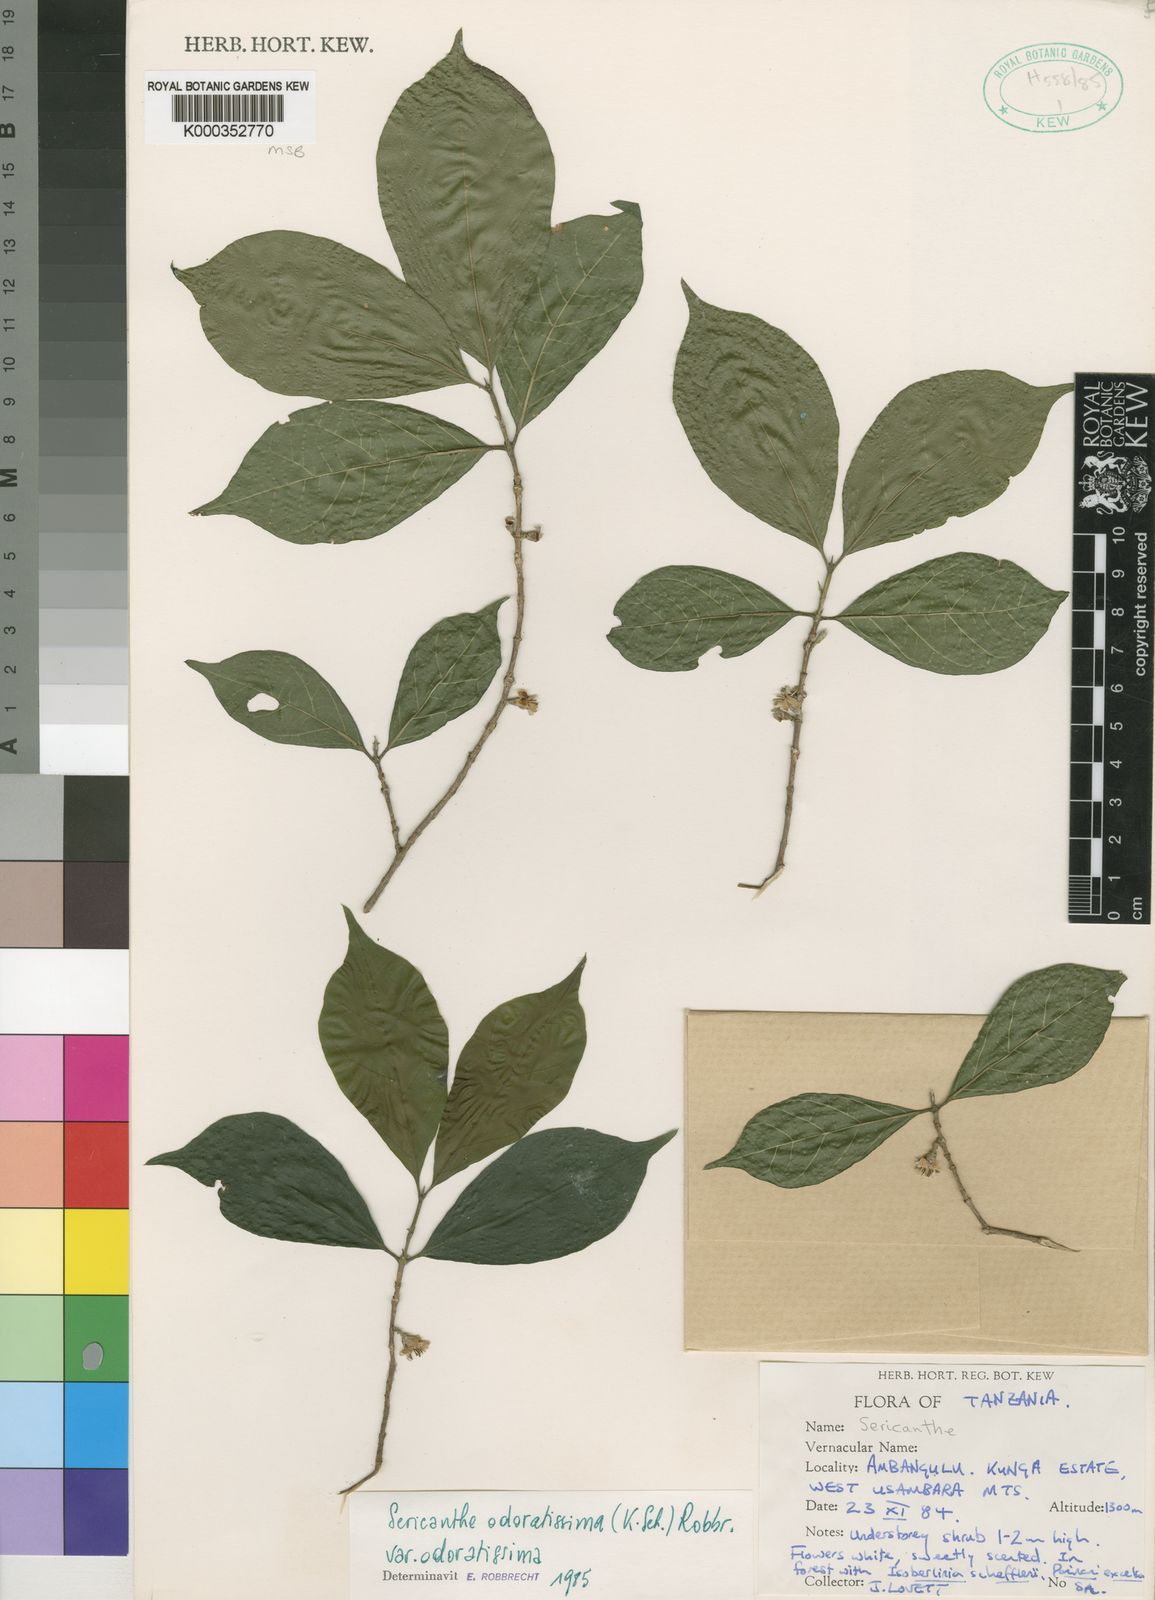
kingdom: Plantae
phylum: Tracheophyta
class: Magnoliopsida
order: Gentianales
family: Rubiaceae
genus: Sericanthe
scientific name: Sericanthe odoratissima
